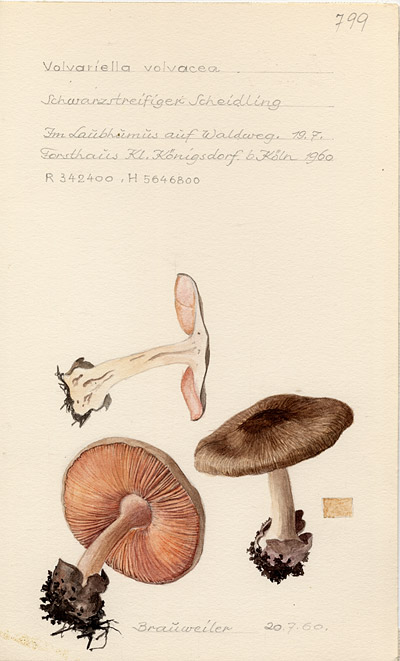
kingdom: Fungi
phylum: Basidiomycota
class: Agaricomycetes
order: Agaricales
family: Pluteaceae
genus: Volvariella
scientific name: Volvariella volvacea
